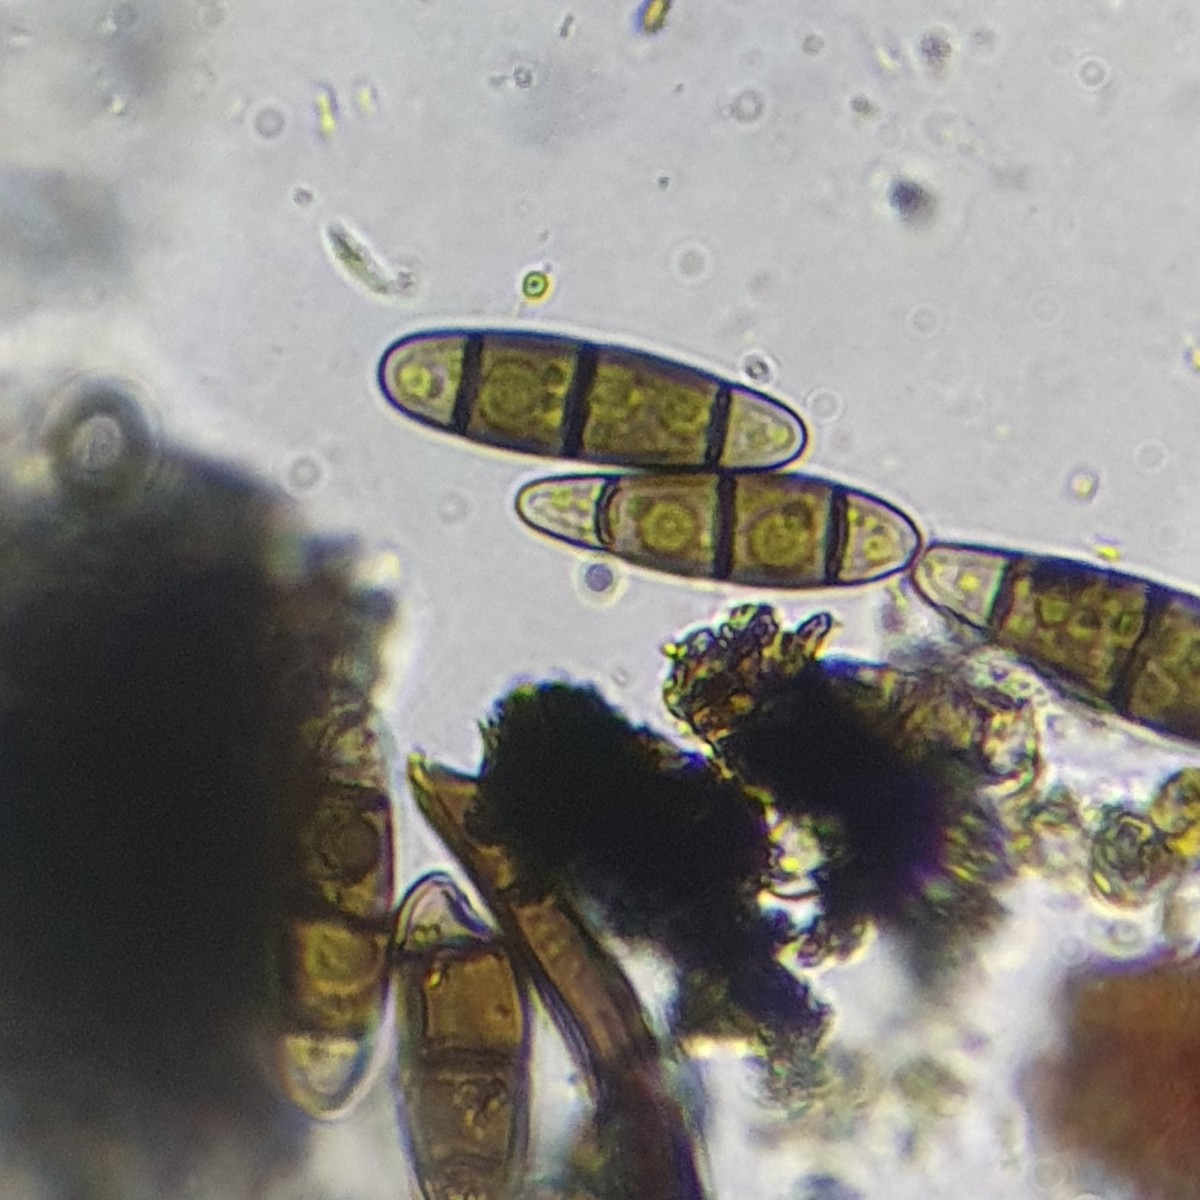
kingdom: Fungi
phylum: Ascomycota
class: Dothideomycetes
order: Hysteriales
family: Hysteriaceae
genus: Hysterium
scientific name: Hysterium pulicare
